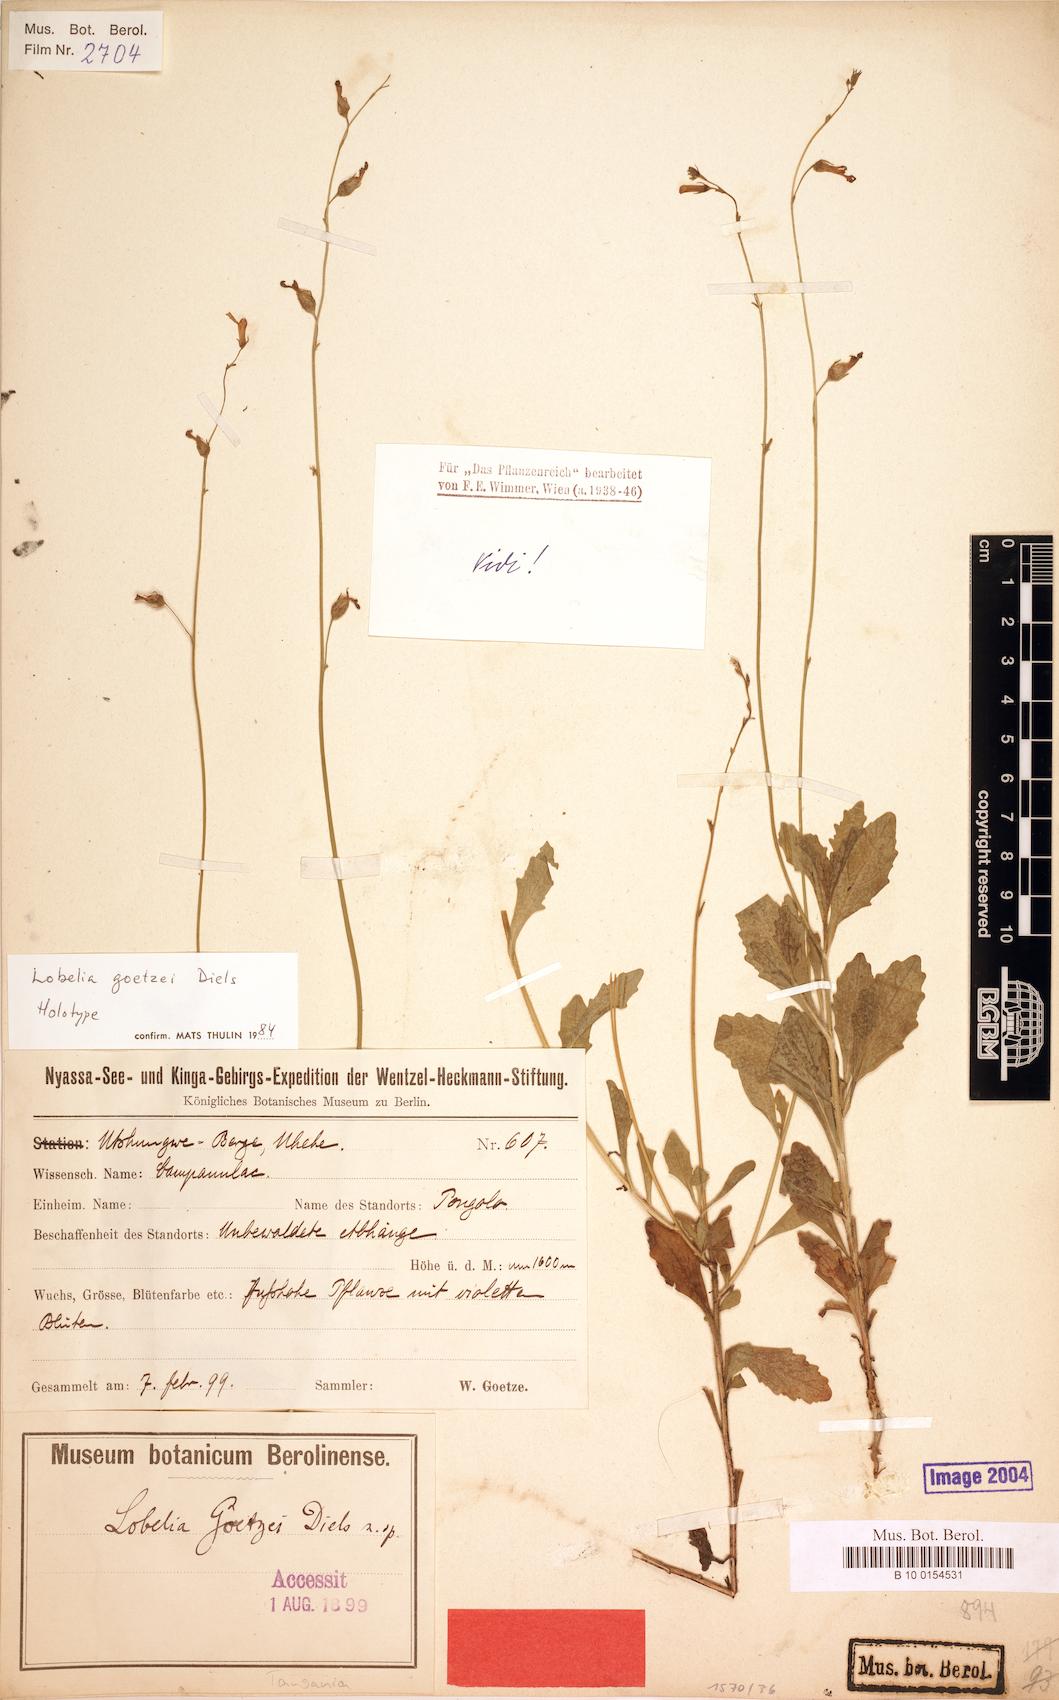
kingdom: Plantae
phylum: Tracheophyta
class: Magnoliopsida
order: Asterales
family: Campanulaceae
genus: Lobelia
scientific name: Lobelia goetzei
